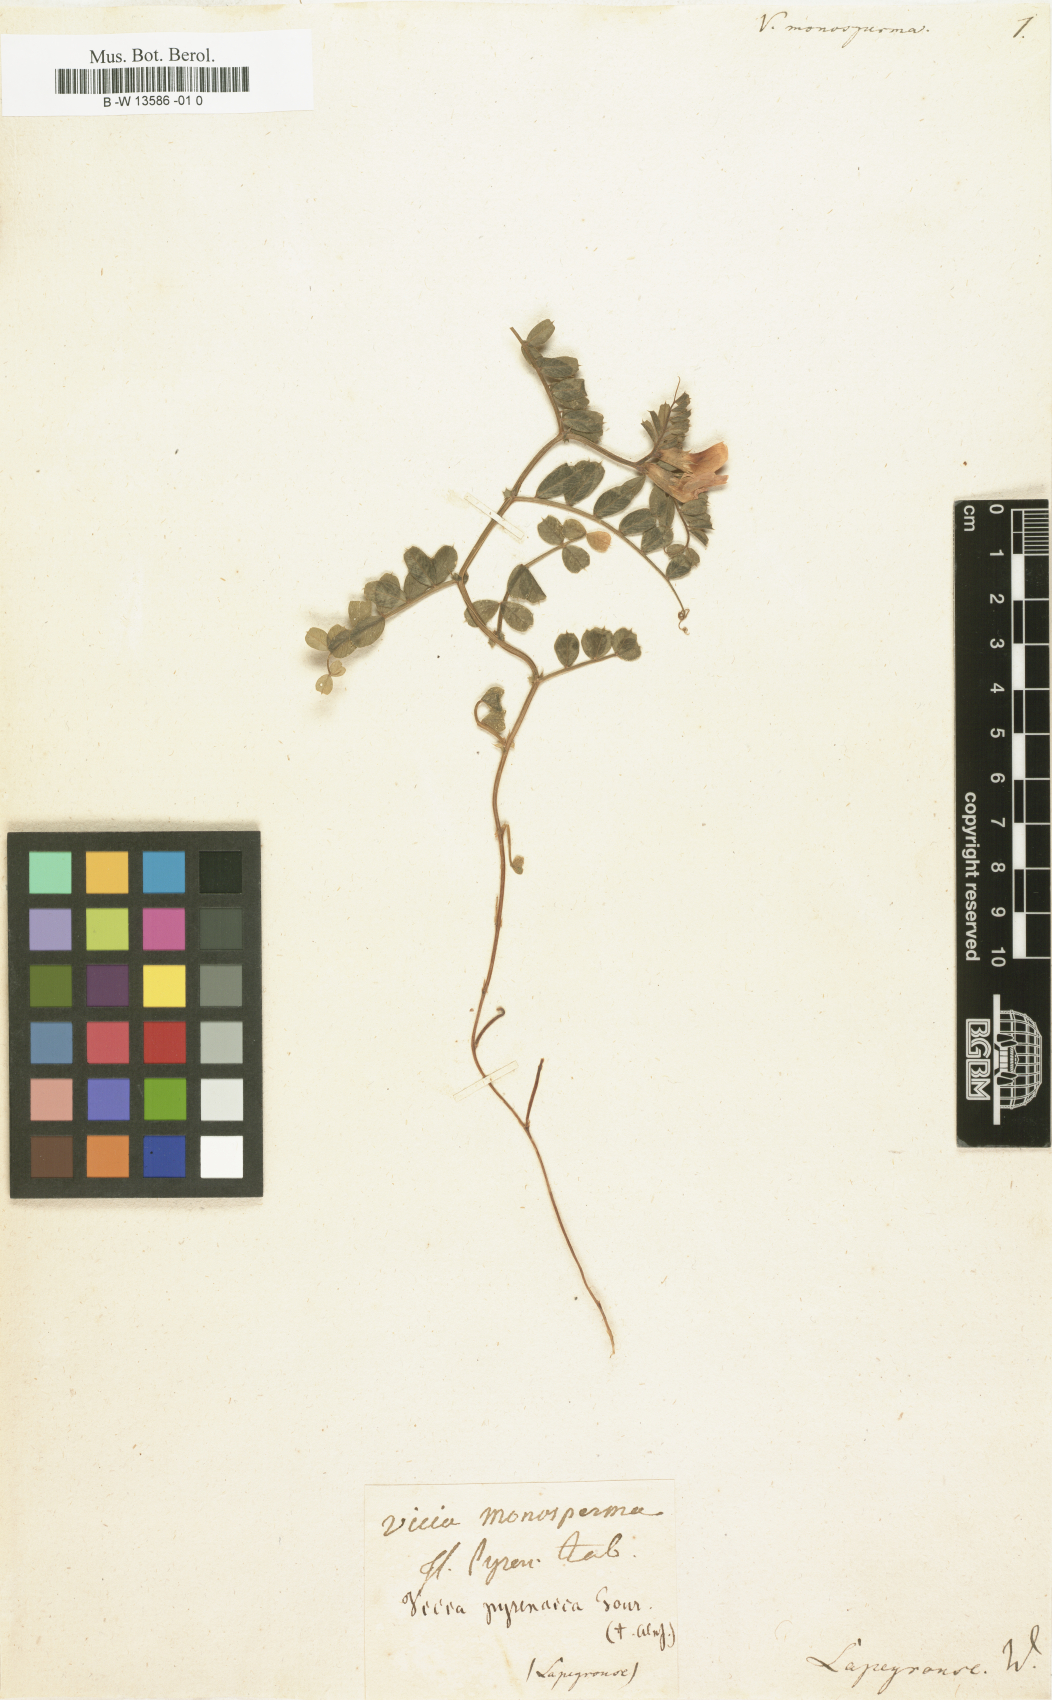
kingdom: Plantae
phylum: Tracheophyta
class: Magnoliopsida
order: Fabales
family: Fabaceae
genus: Vicia
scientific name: Vicia
